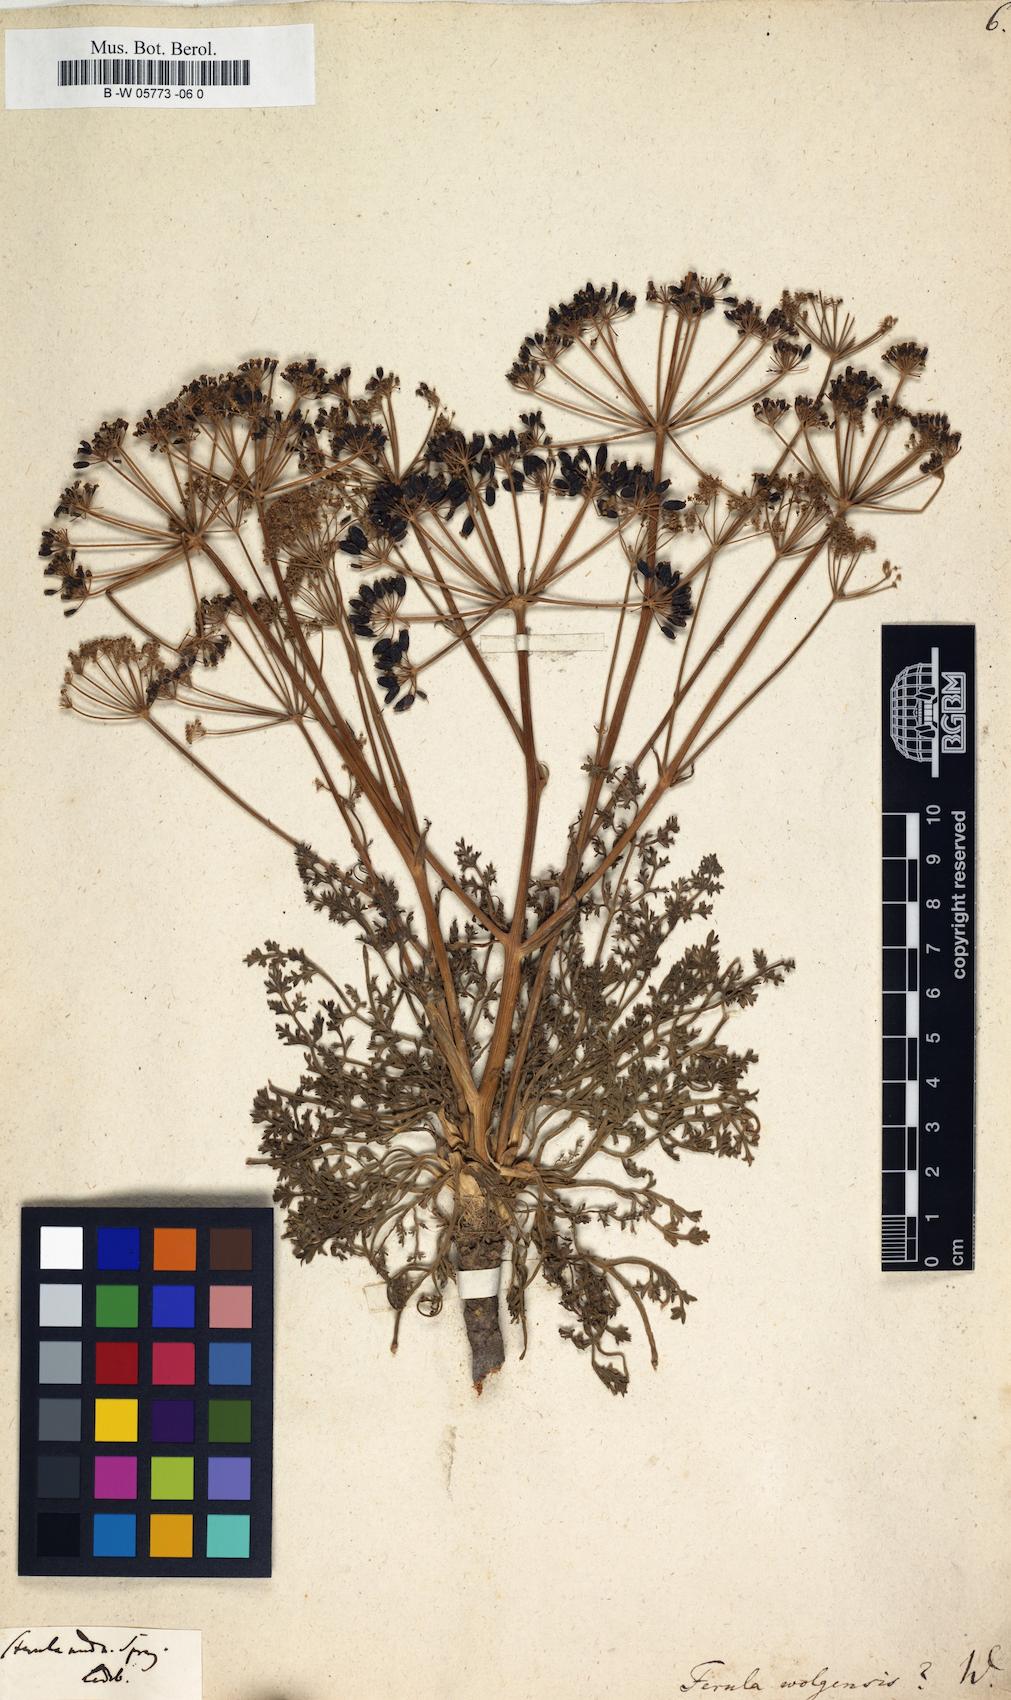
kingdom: Plantae
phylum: Tracheophyta
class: Magnoliopsida
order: Apiales
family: Apiaceae
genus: Ferula
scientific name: Ferula nuda
